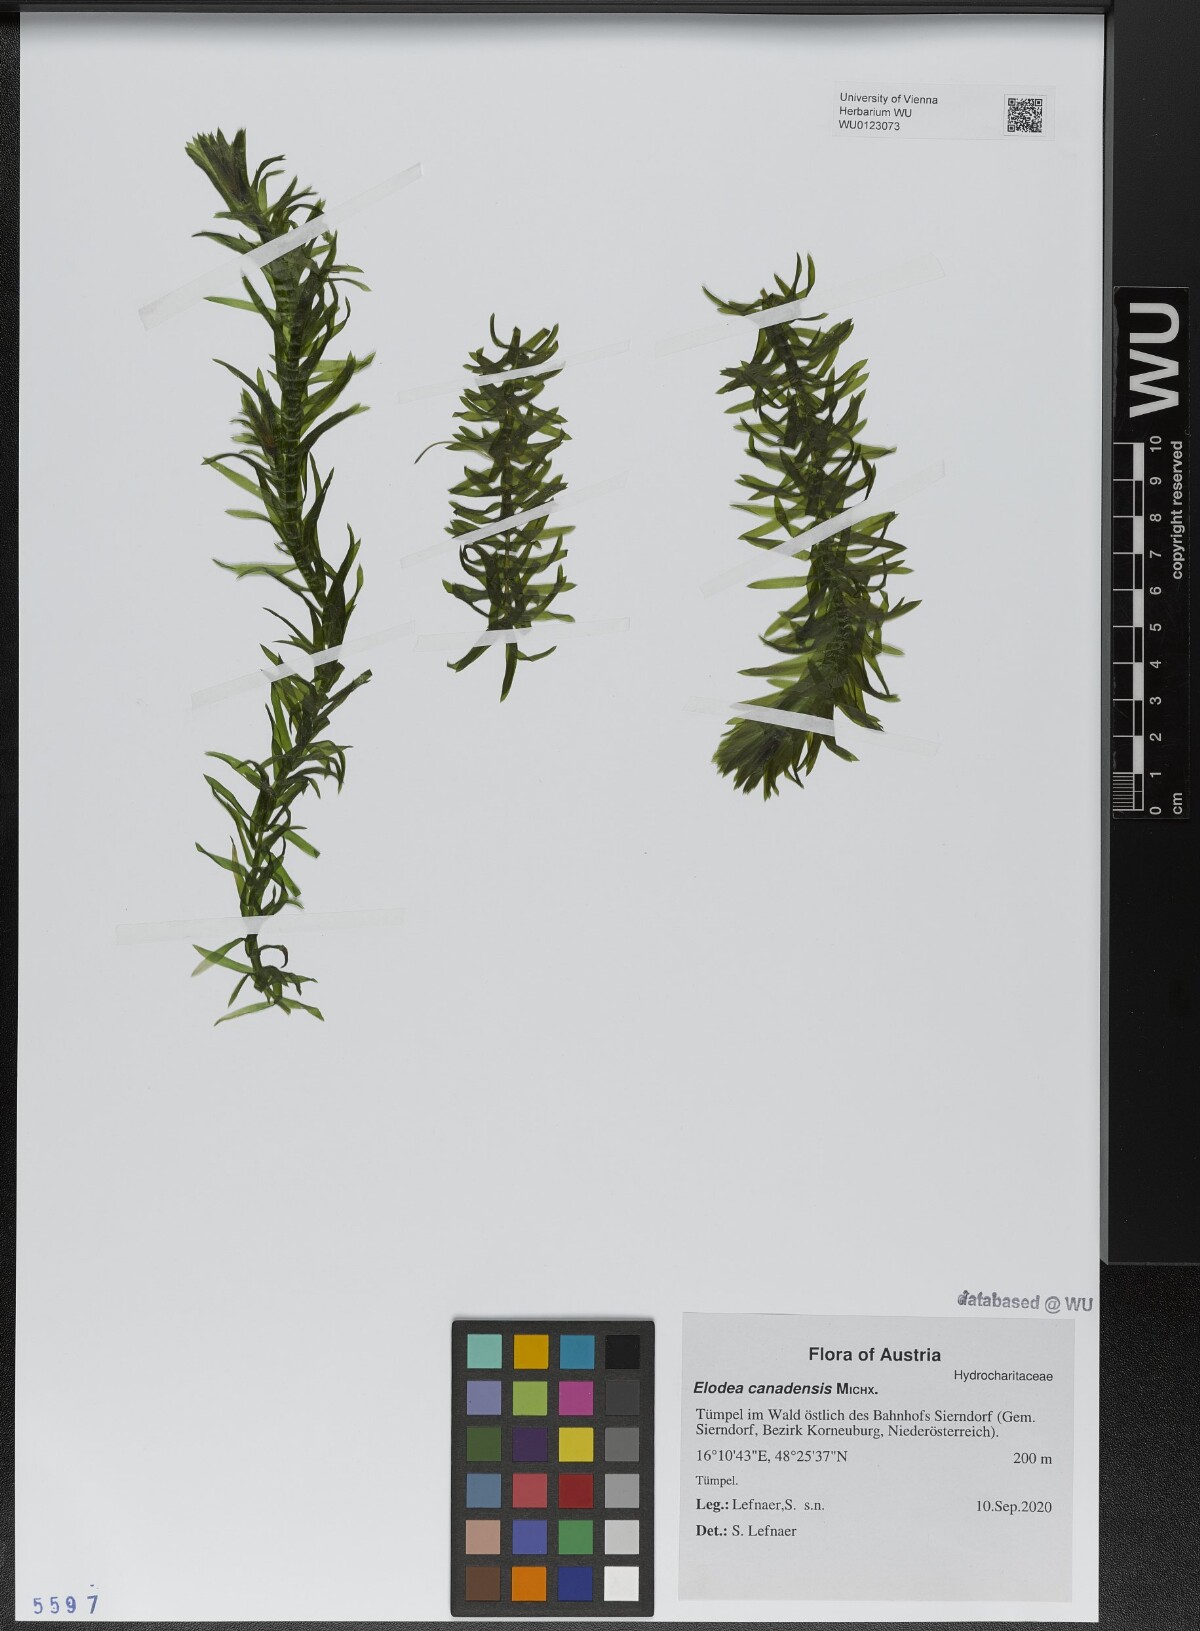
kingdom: Plantae
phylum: Tracheophyta
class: Liliopsida
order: Alismatales
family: Hydrocharitaceae
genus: Elodea
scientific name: Elodea canadensis
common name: Canadian waterweed
